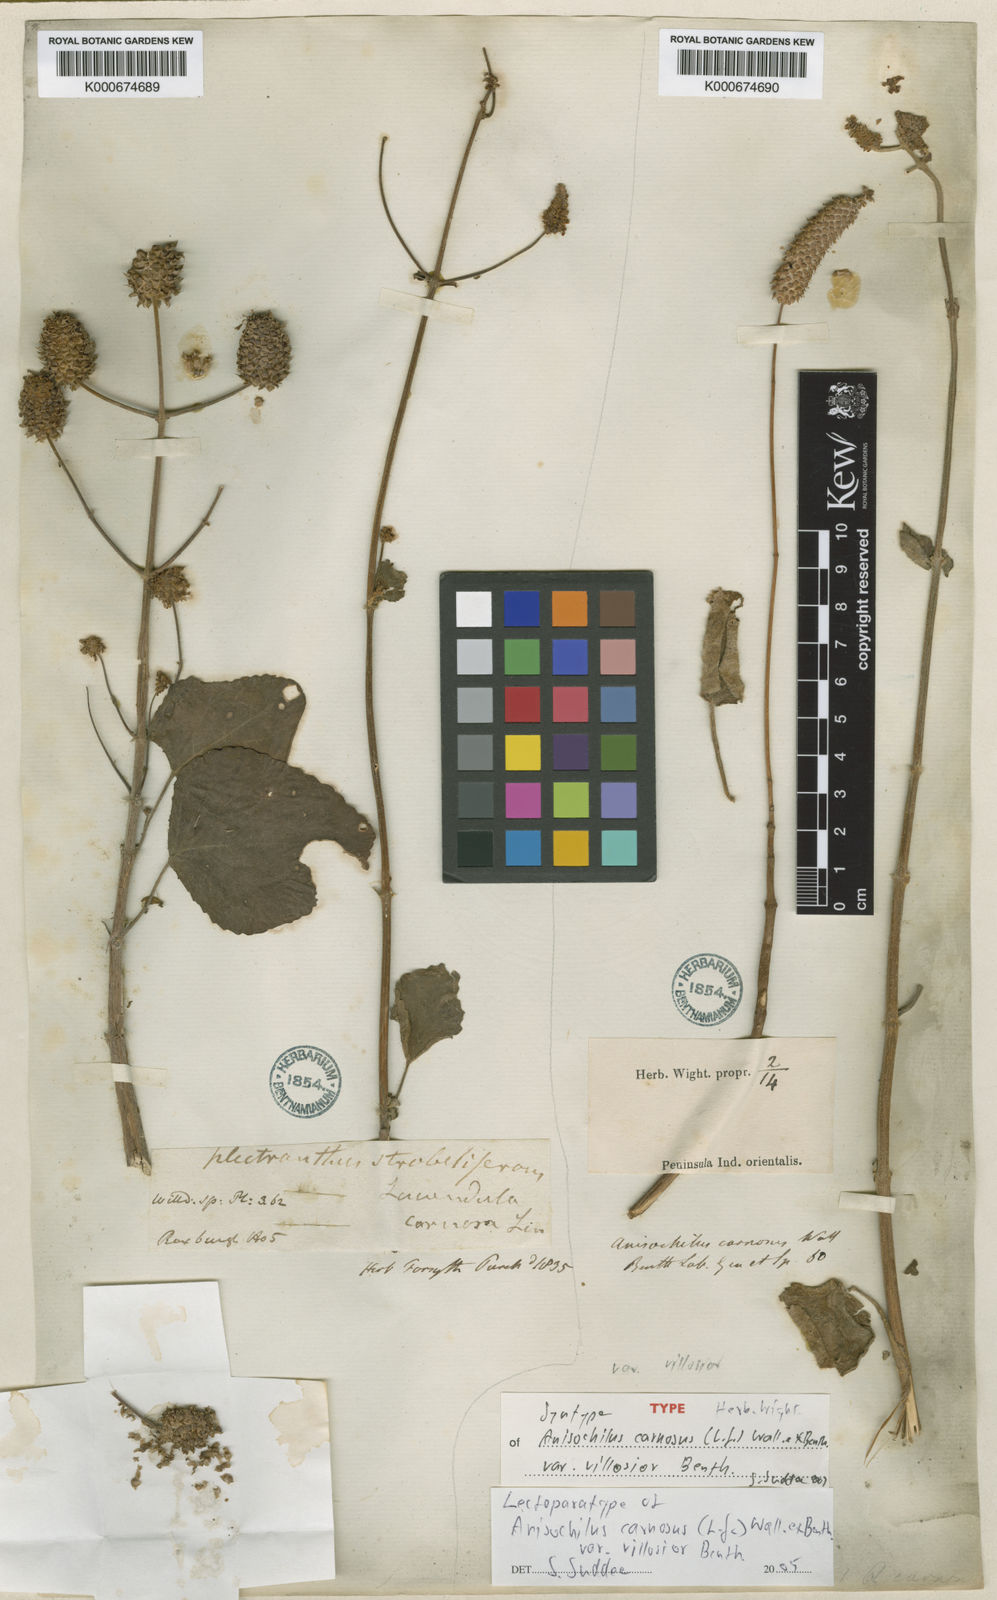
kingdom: Plantae
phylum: Tracheophyta
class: Magnoliopsida
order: Lamiales
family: Lamiaceae
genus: Anisochilus
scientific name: Anisochilus
